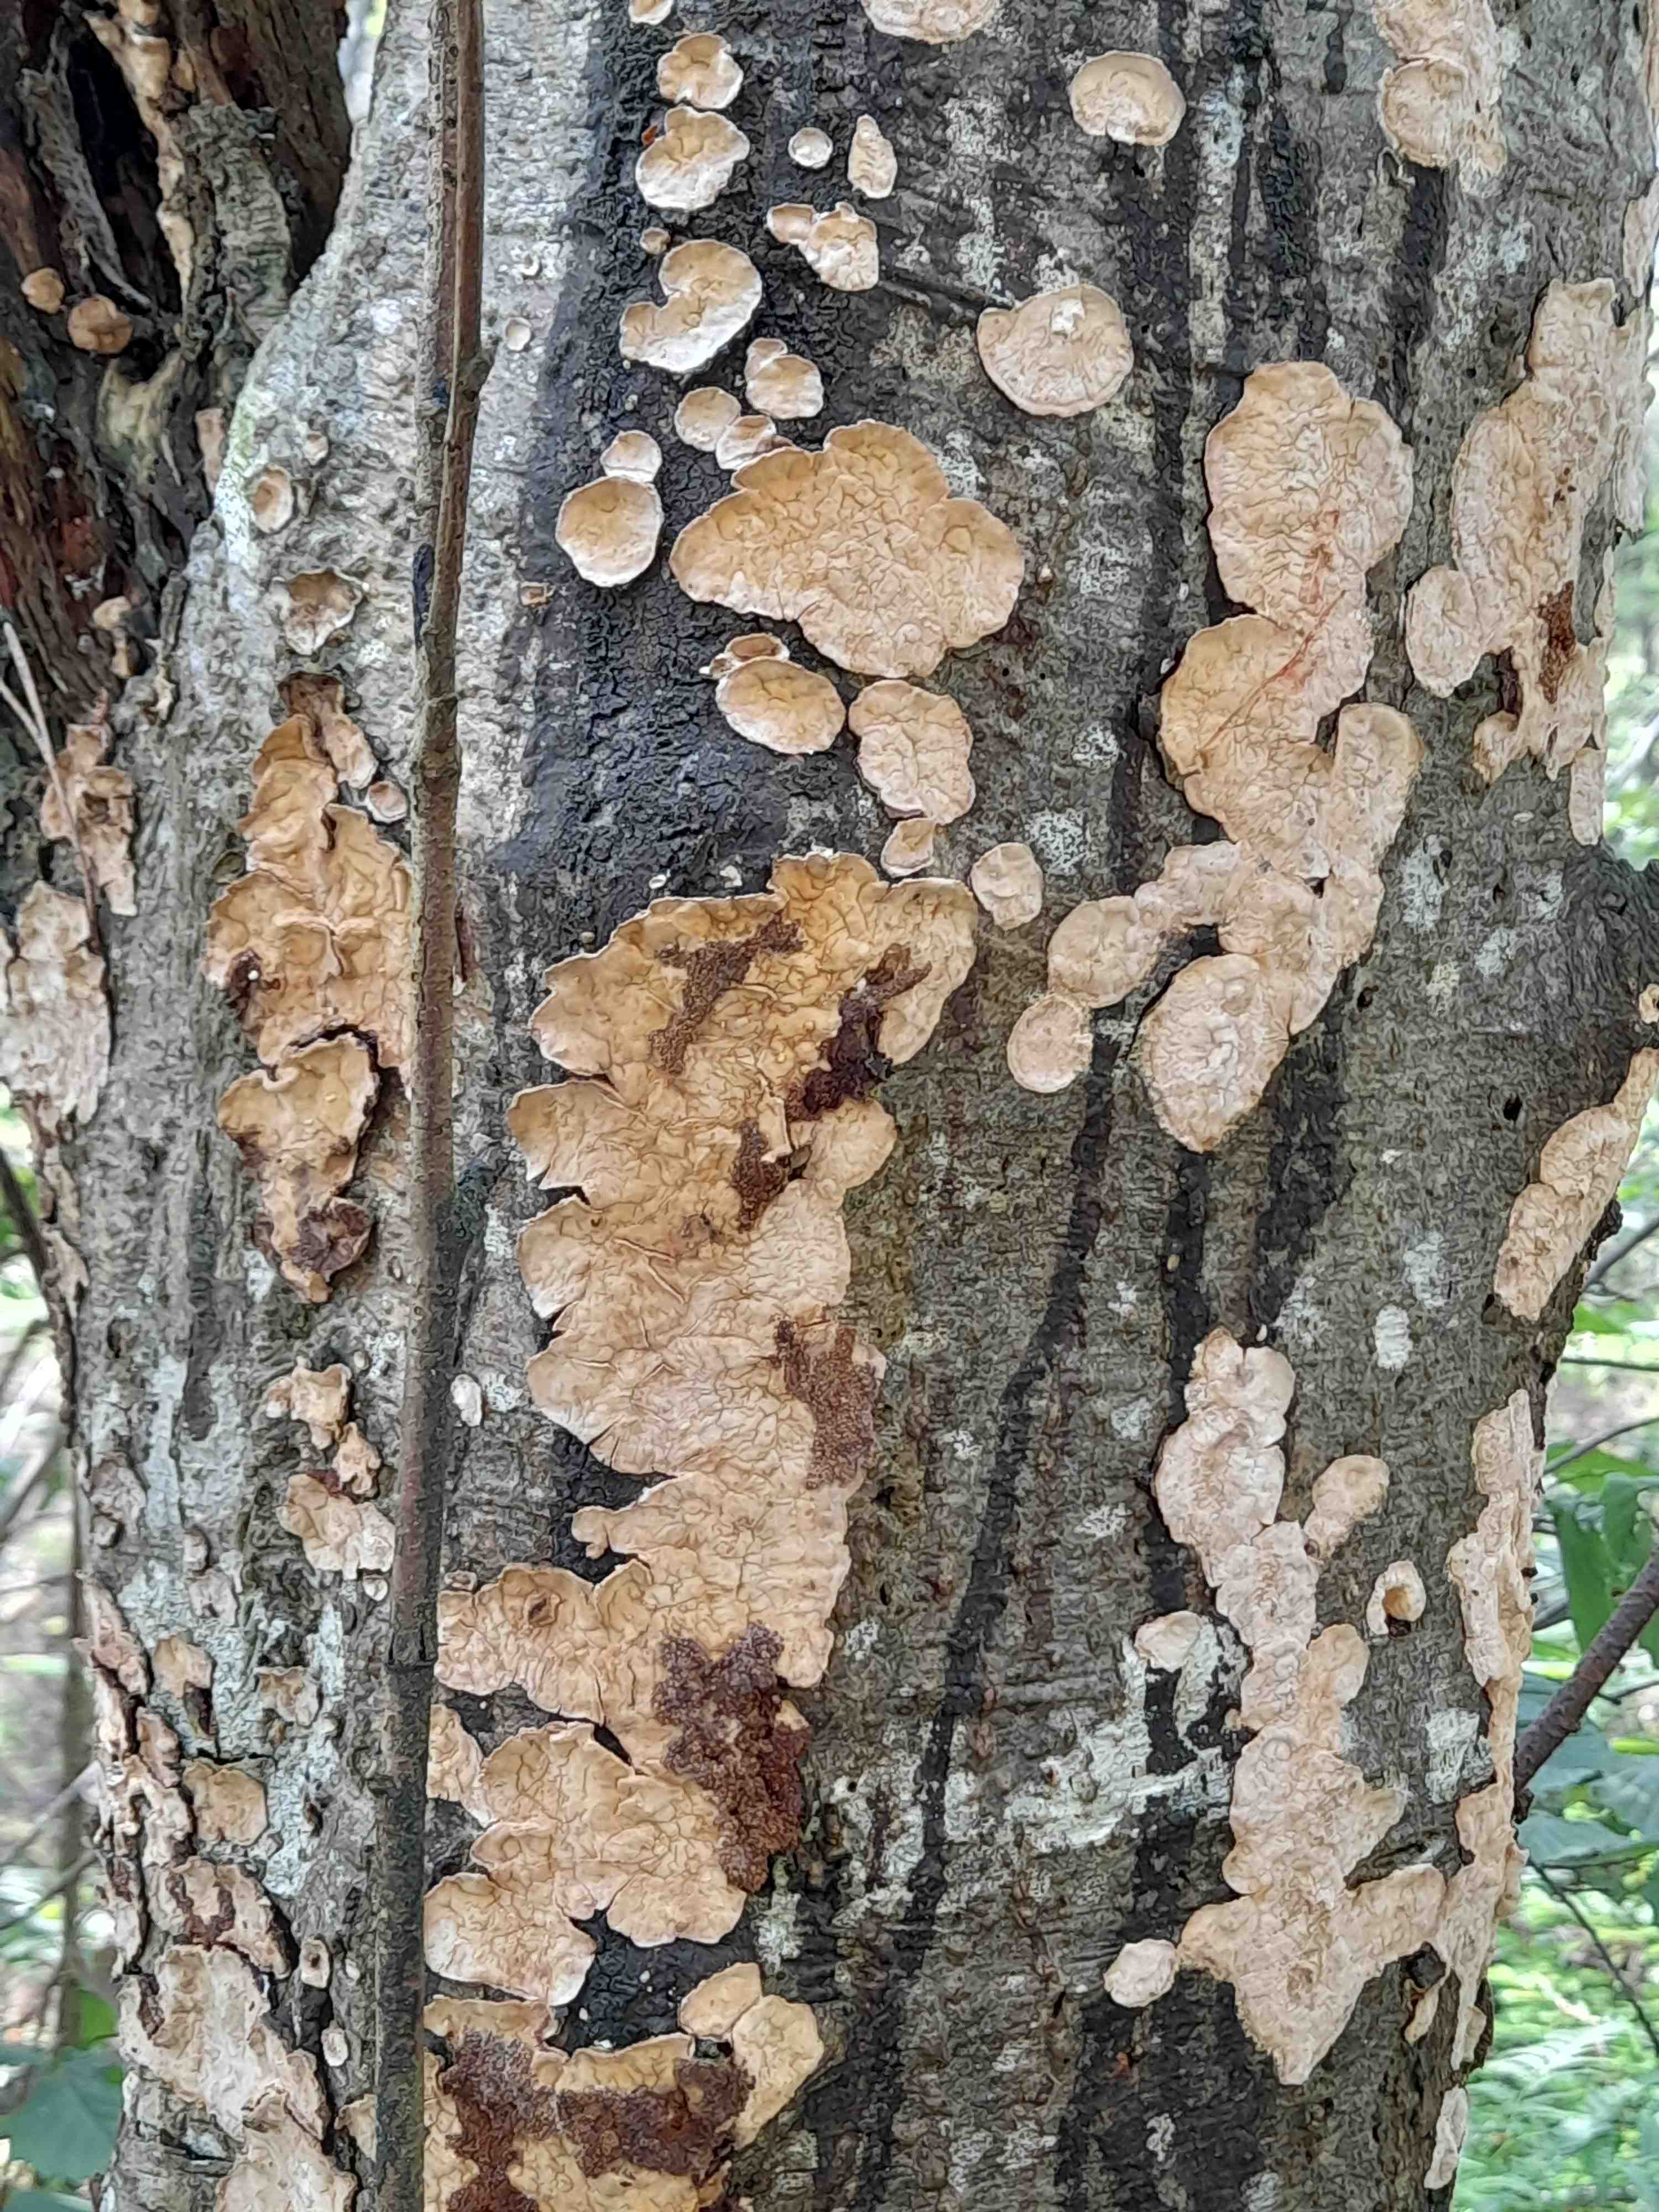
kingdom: Fungi
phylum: Basidiomycota
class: Agaricomycetes
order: Russulales
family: Stereaceae
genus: Stereum
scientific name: Stereum rugosum
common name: rynket lædersvamp
